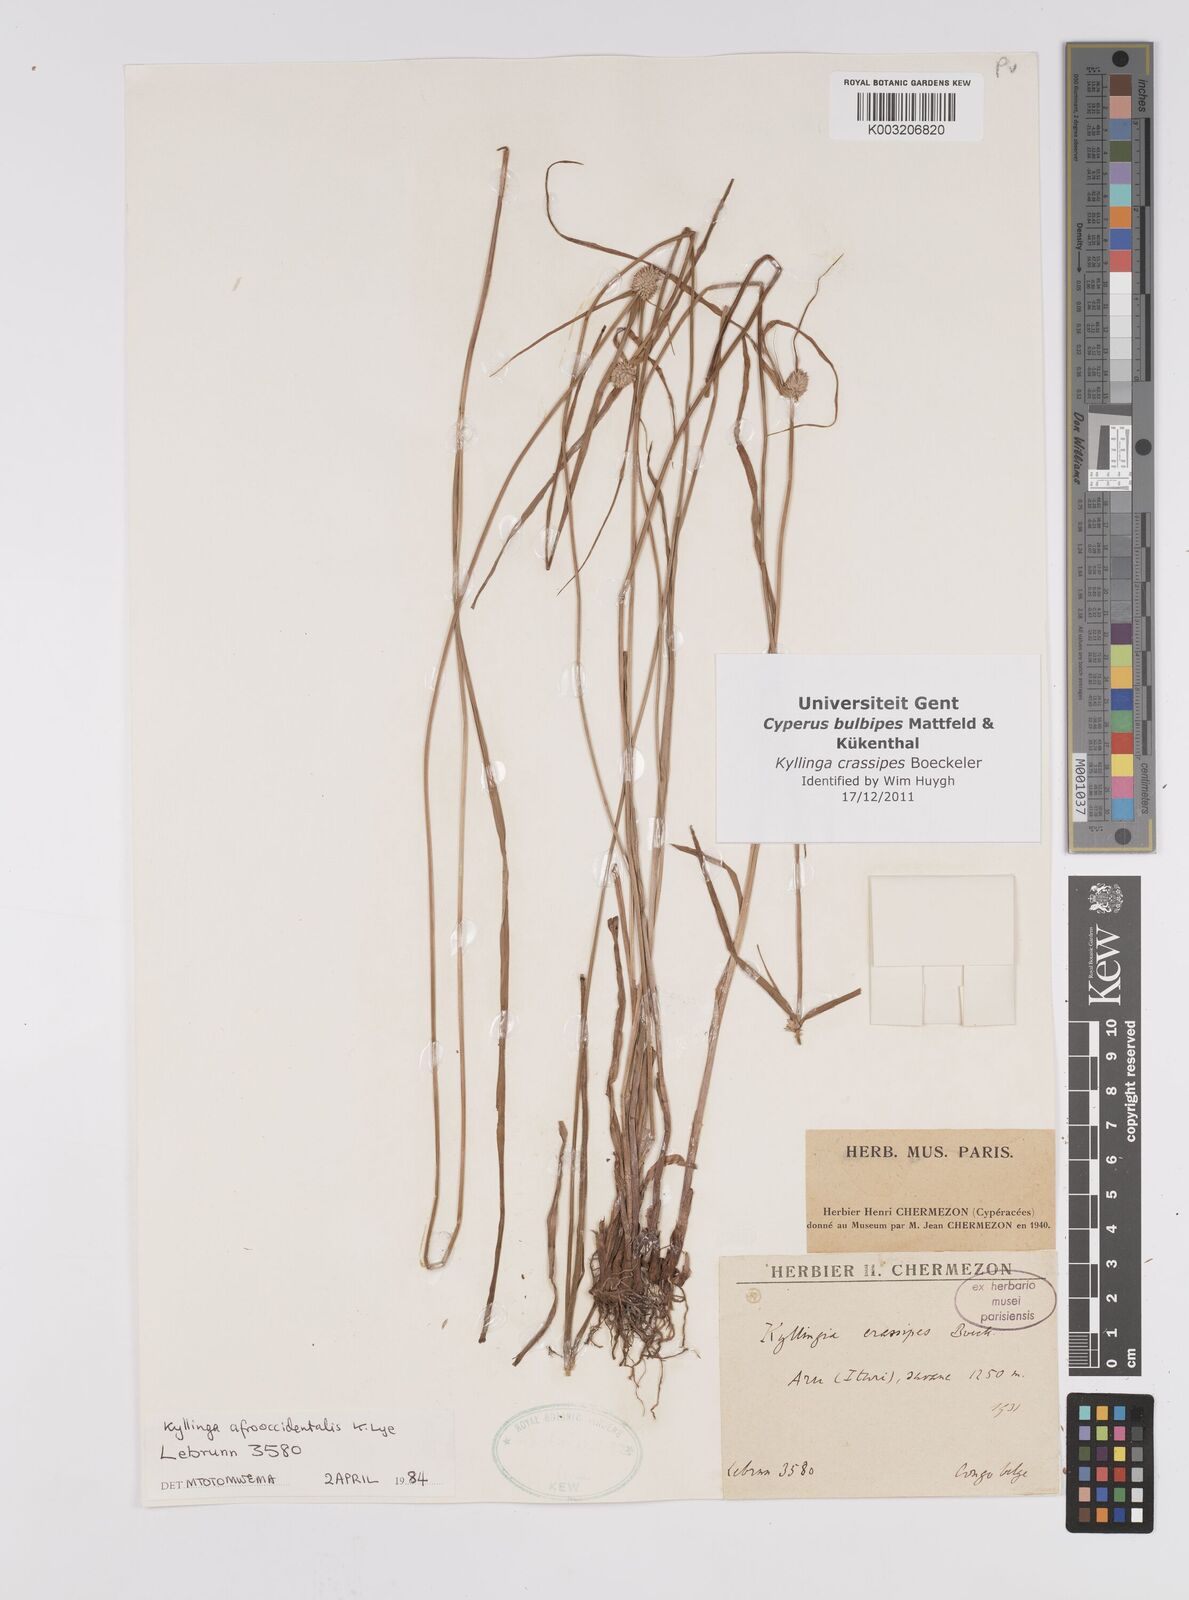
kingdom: Plantae
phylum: Tracheophyta
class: Liliopsida
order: Poales
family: Cyperaceae
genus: Cyperus
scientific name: Cyperus
